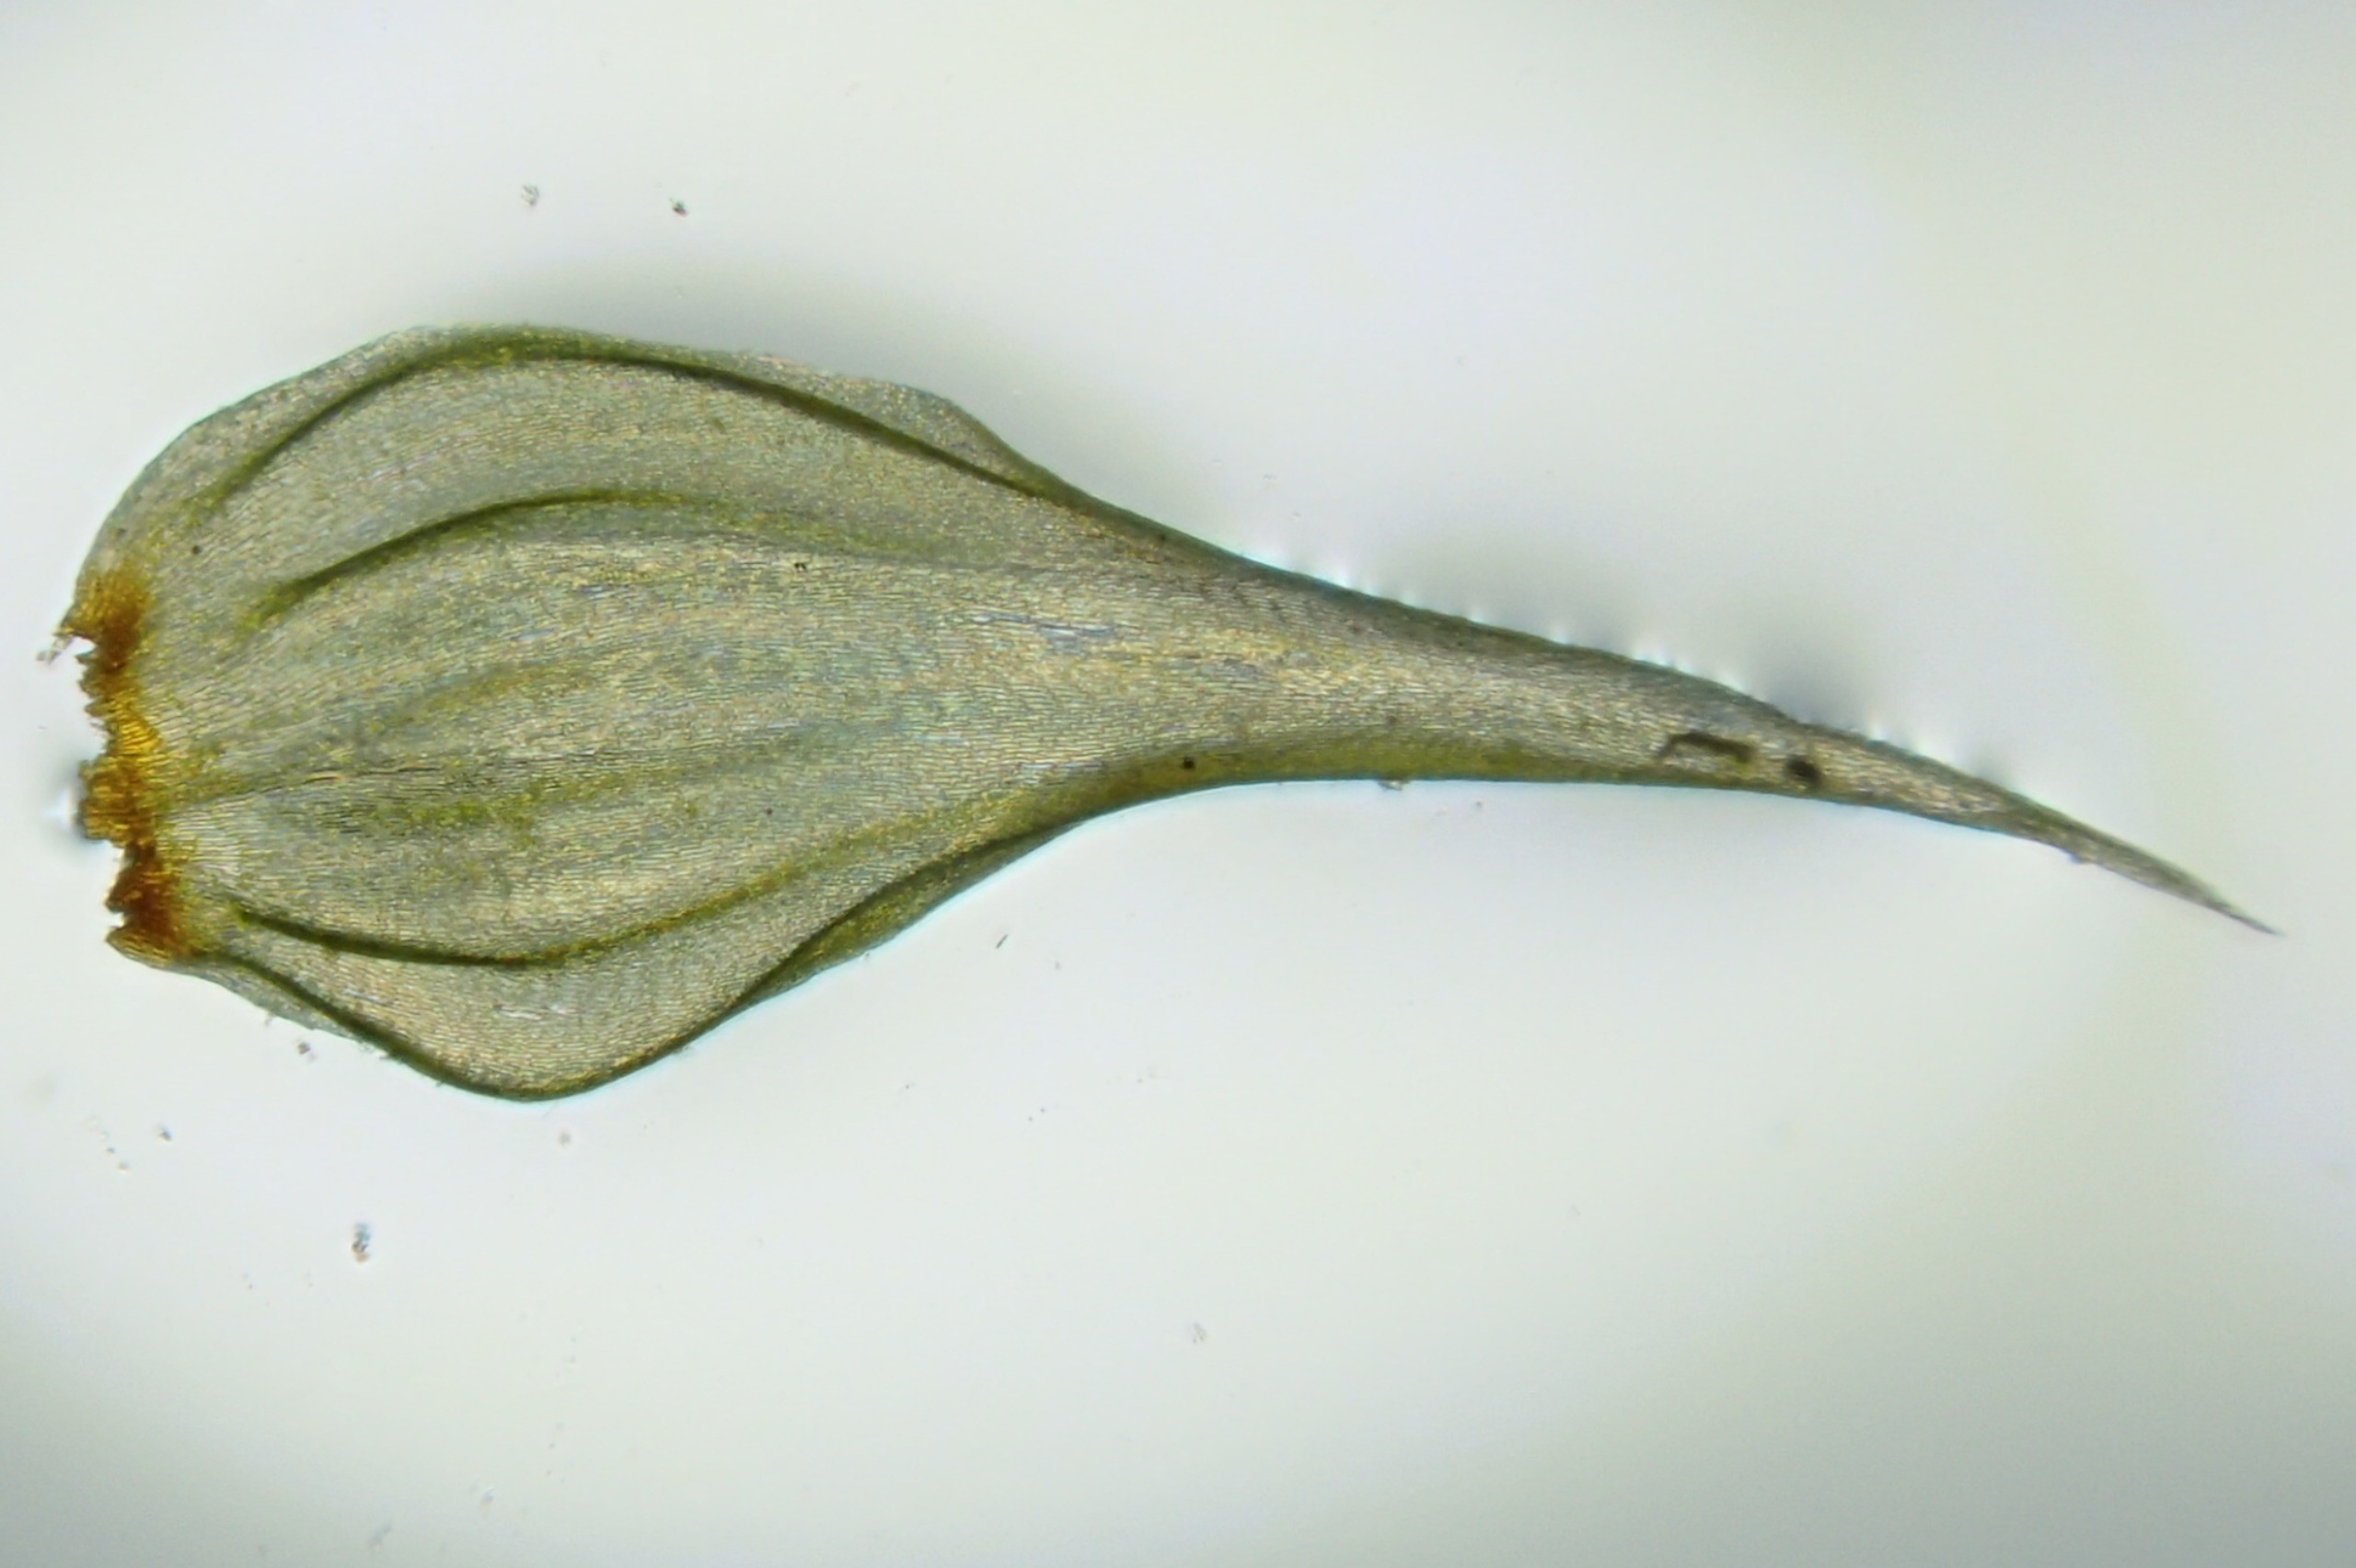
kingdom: Plantae
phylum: Bryophyta
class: Bryopsida
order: Hypnales
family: Hylocomiaceae
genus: Rhytidiadelphus
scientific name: Rhytidiadelphus loreus
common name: Ulvefod-kransemos
